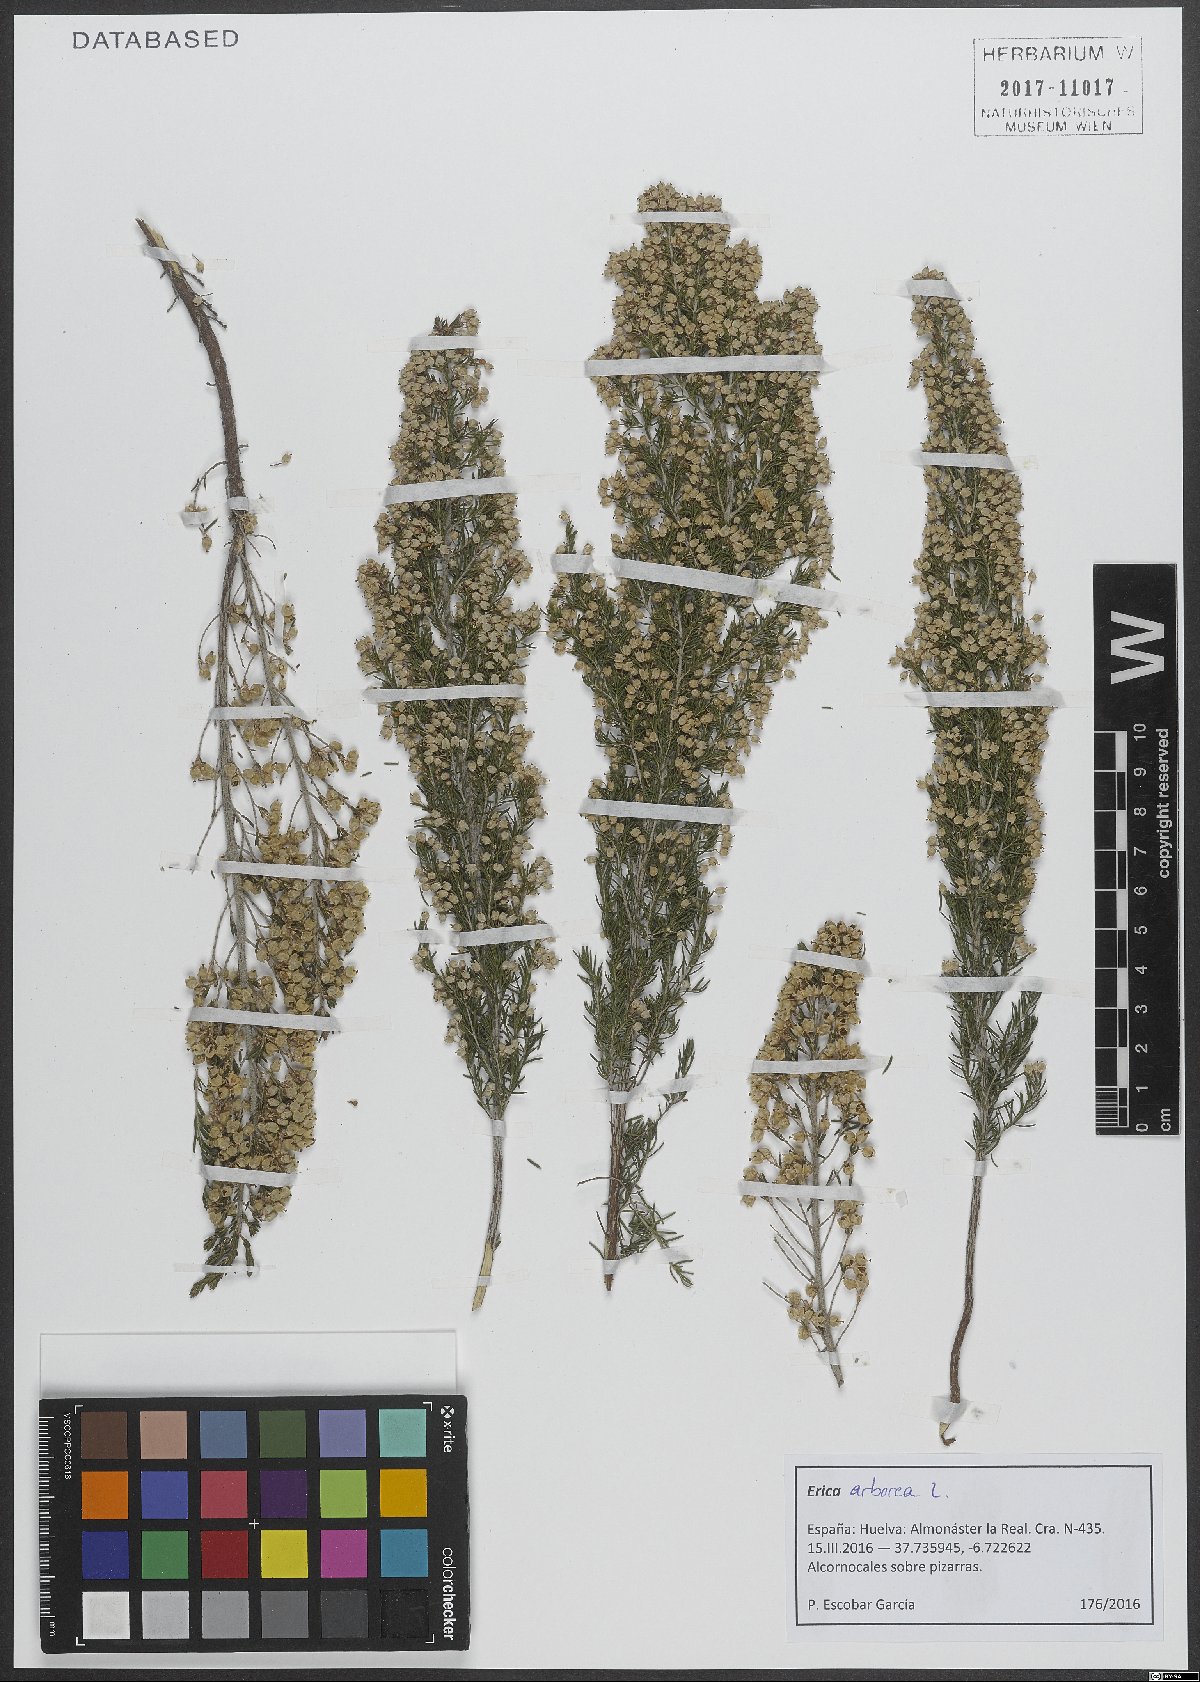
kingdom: Plantae
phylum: Tracheophyta
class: Magnoliopsida
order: Ericales
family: Ericaceae
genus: Erica
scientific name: Erica arborea
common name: Tree heath
